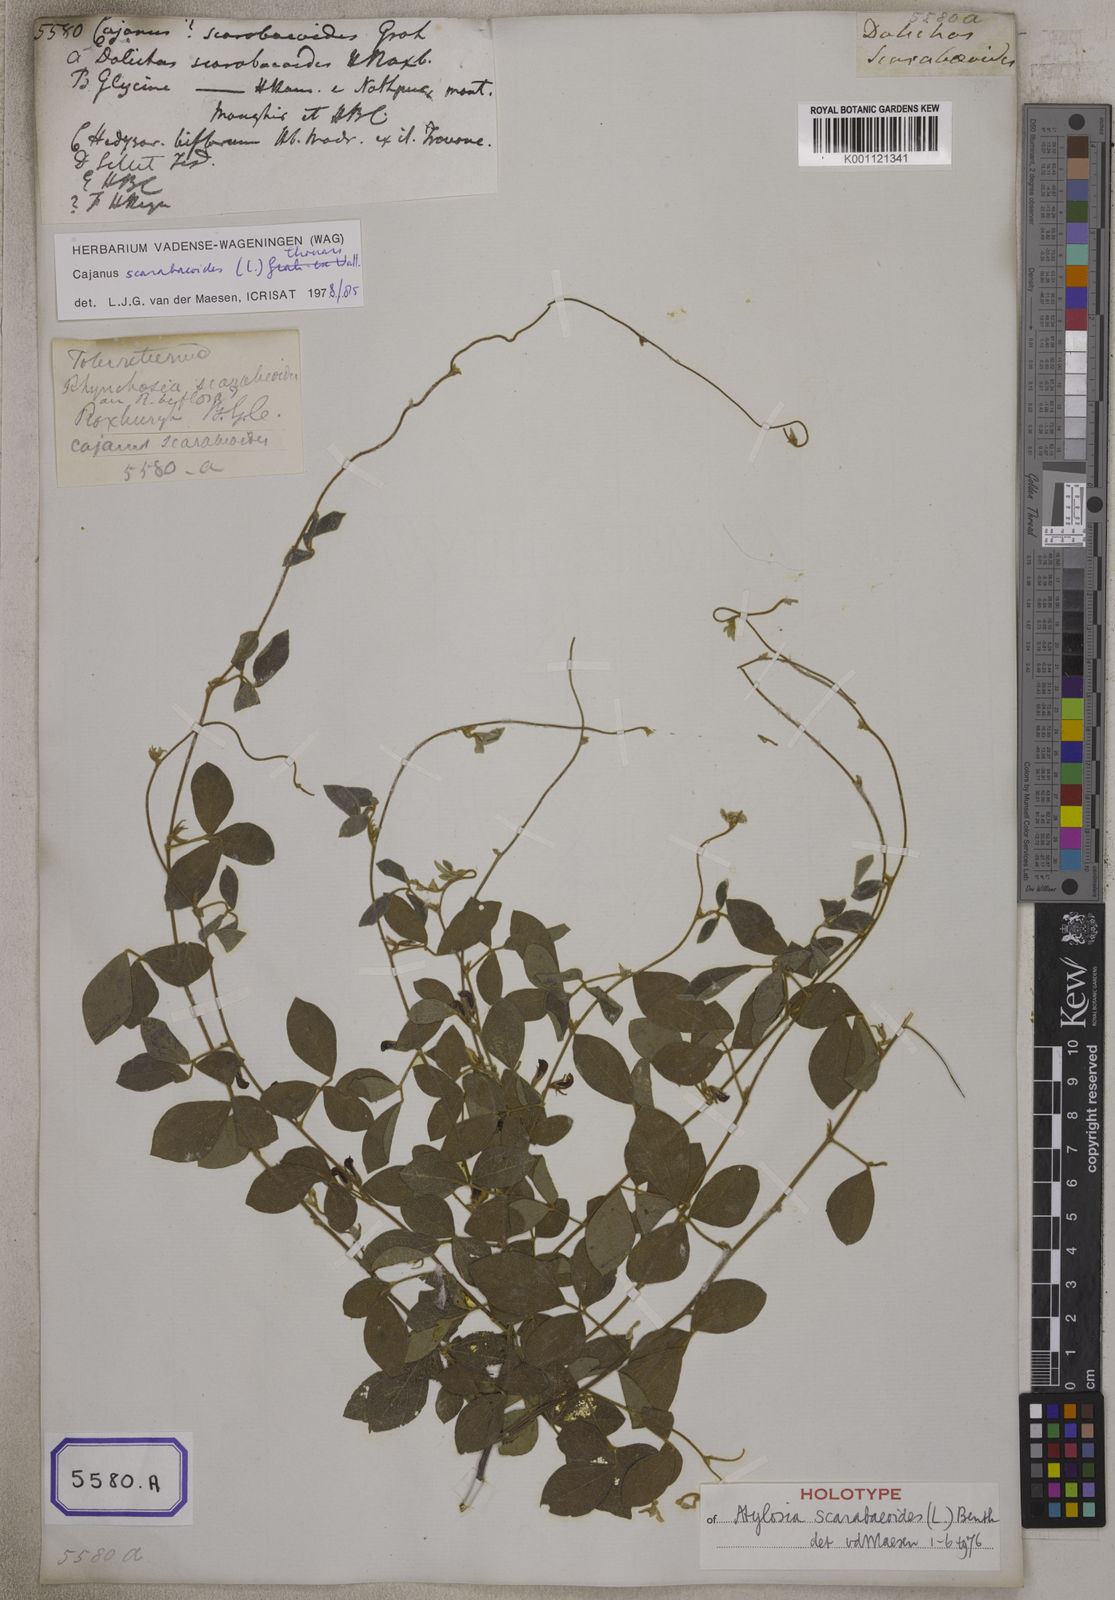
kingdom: Plantae
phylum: Tracheophyta
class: Magnoliopsida
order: Fabales
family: Fabaceae
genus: Cajanus
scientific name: Cajanus scarabaeoides
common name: Showy pigeonpea
